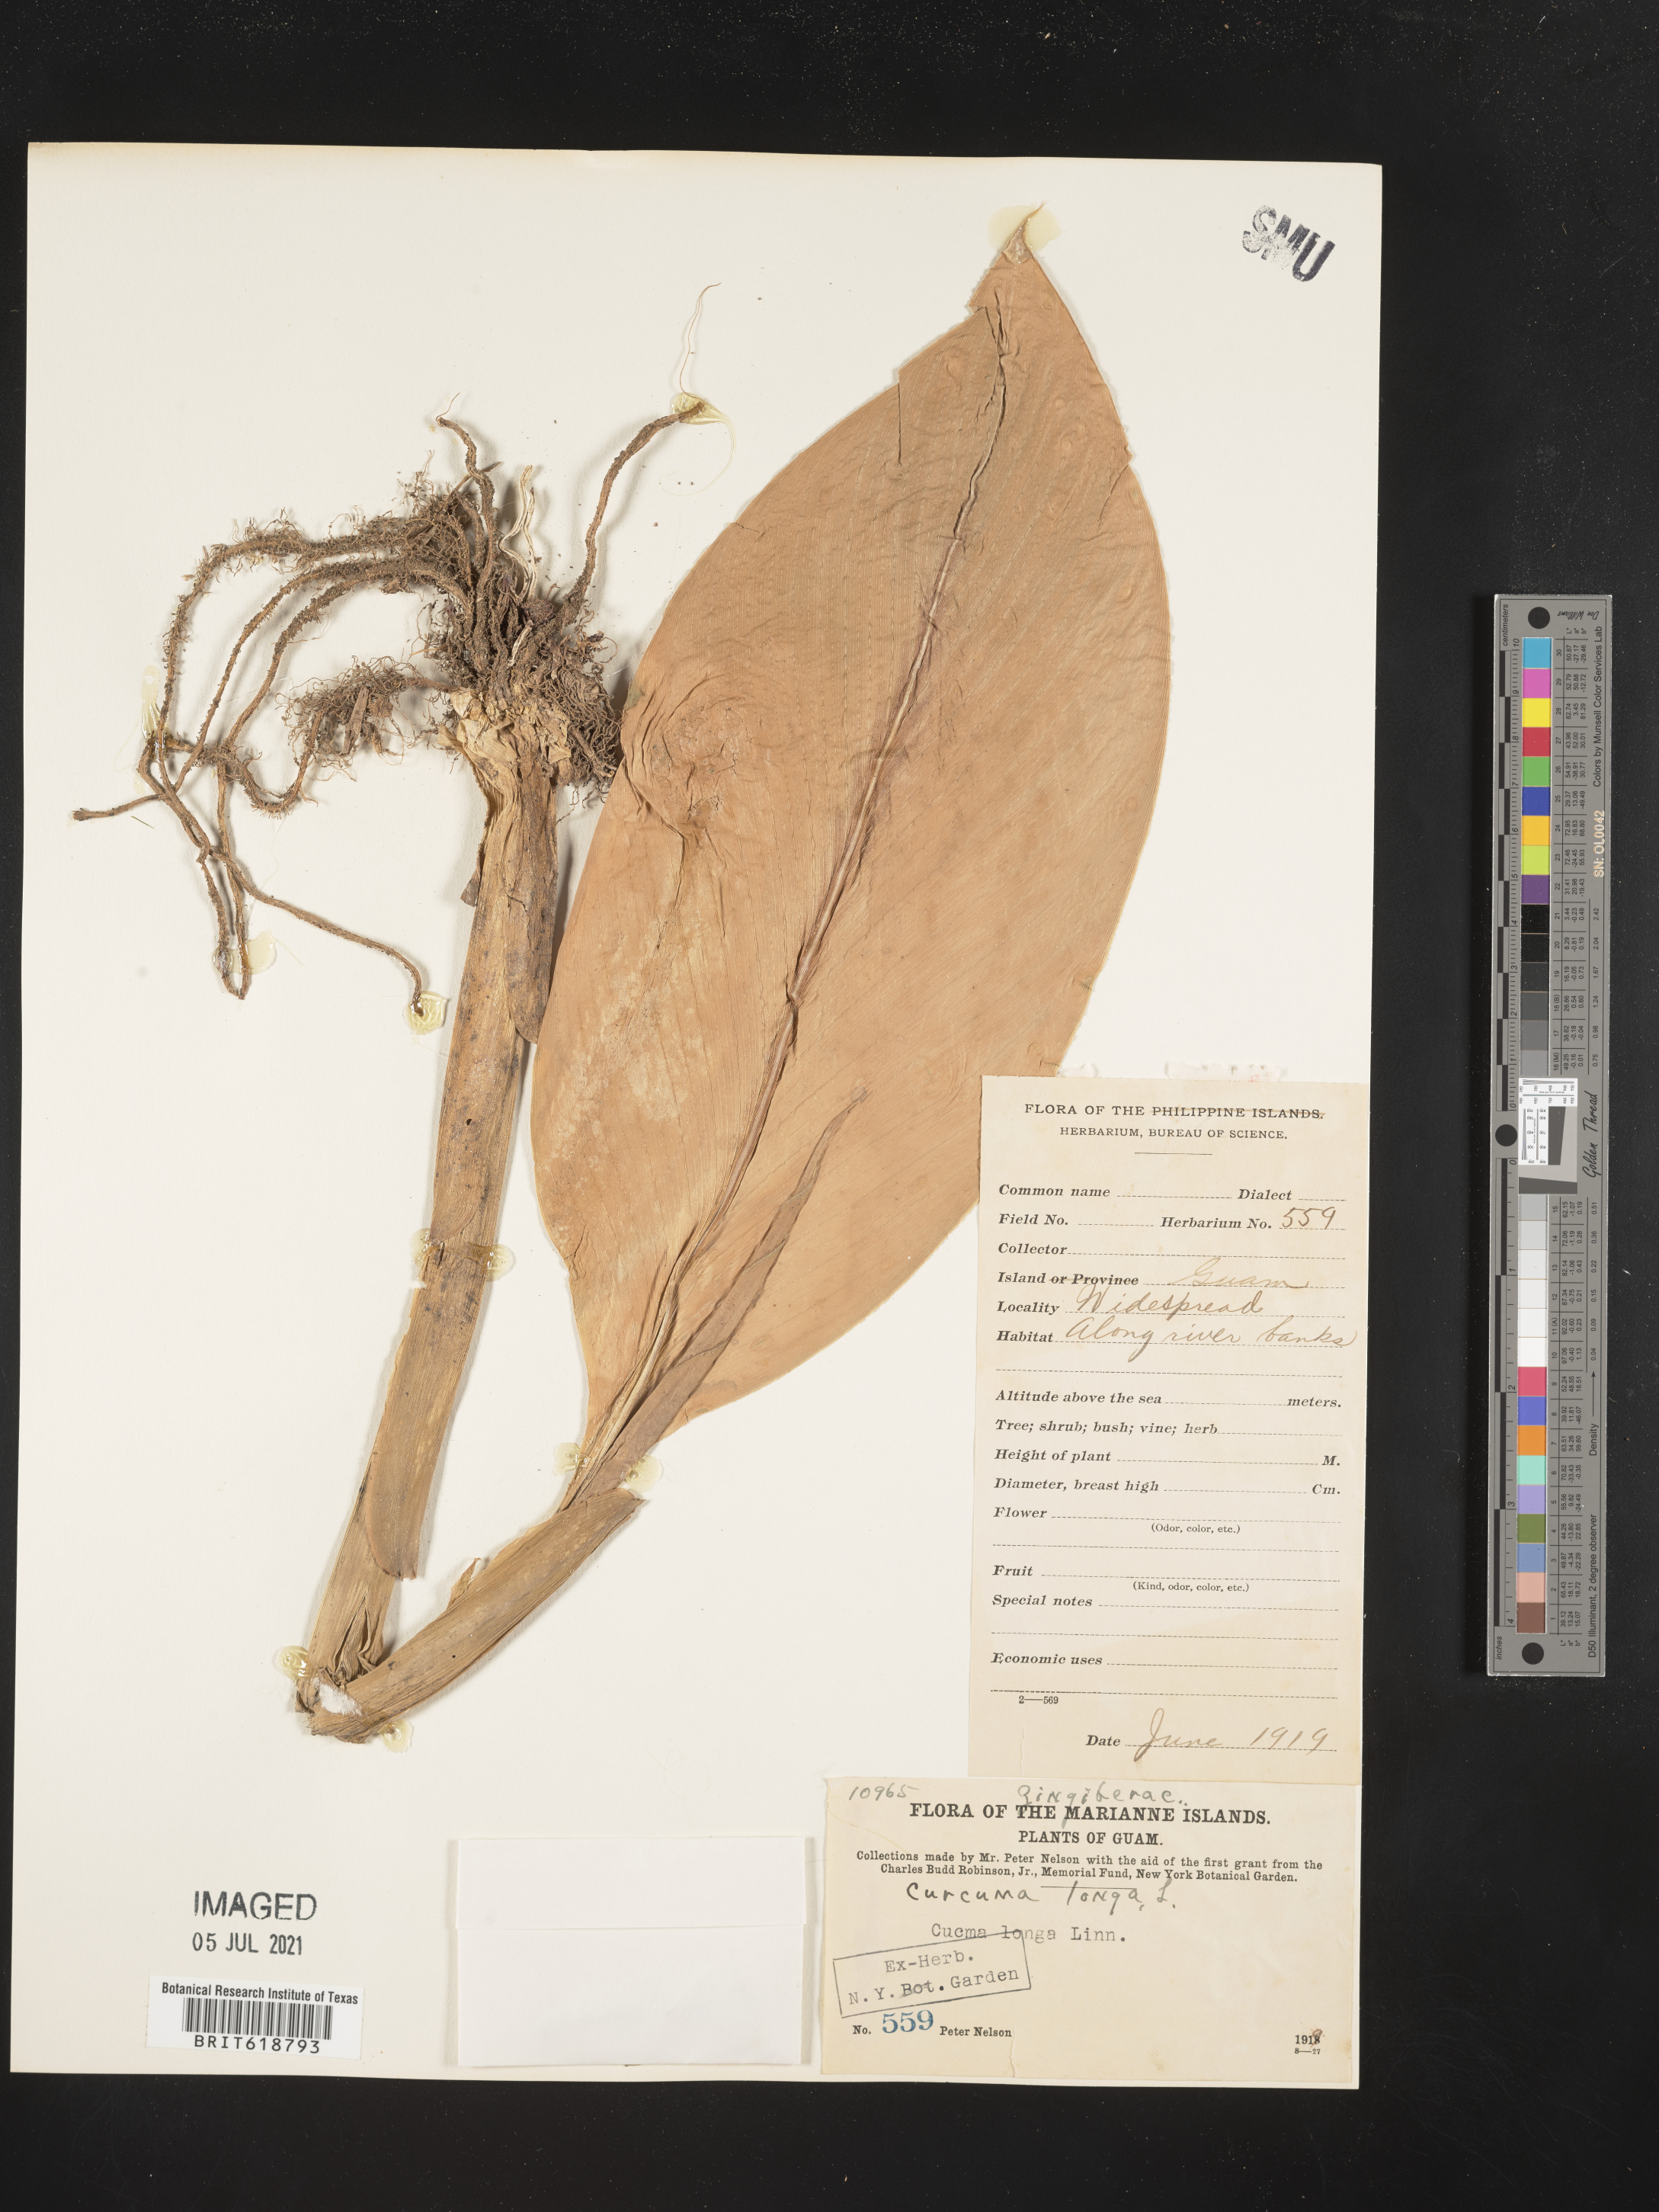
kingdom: Plantae
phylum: Tracheophyta
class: Liliopsida
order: Zingiberales
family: Zingiberaceae
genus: Curcuma
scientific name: Curcuma longa
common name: Turmeric
